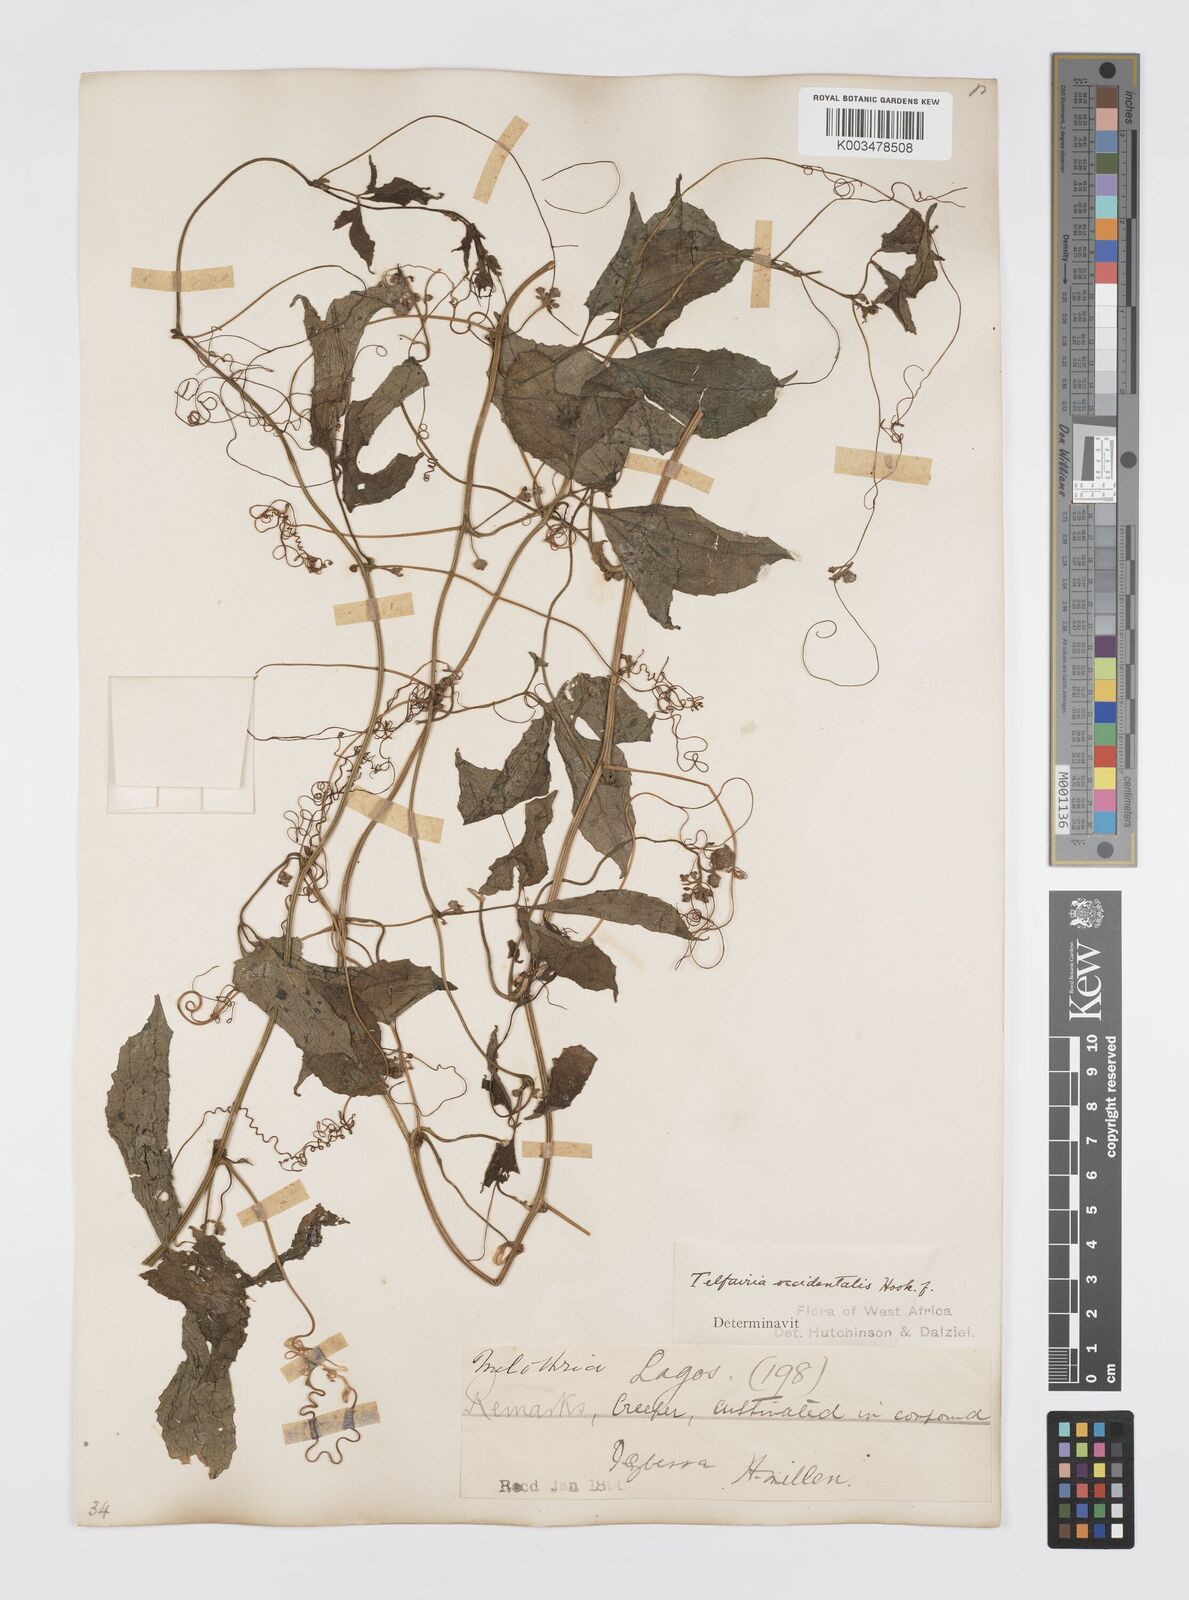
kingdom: Plantae
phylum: Tracheophyta
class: Magnoliopsida
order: Cucurbitales
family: Cucurbitaceae
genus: Telfairia
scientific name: Telfairia occidentalis
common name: Oysternut
